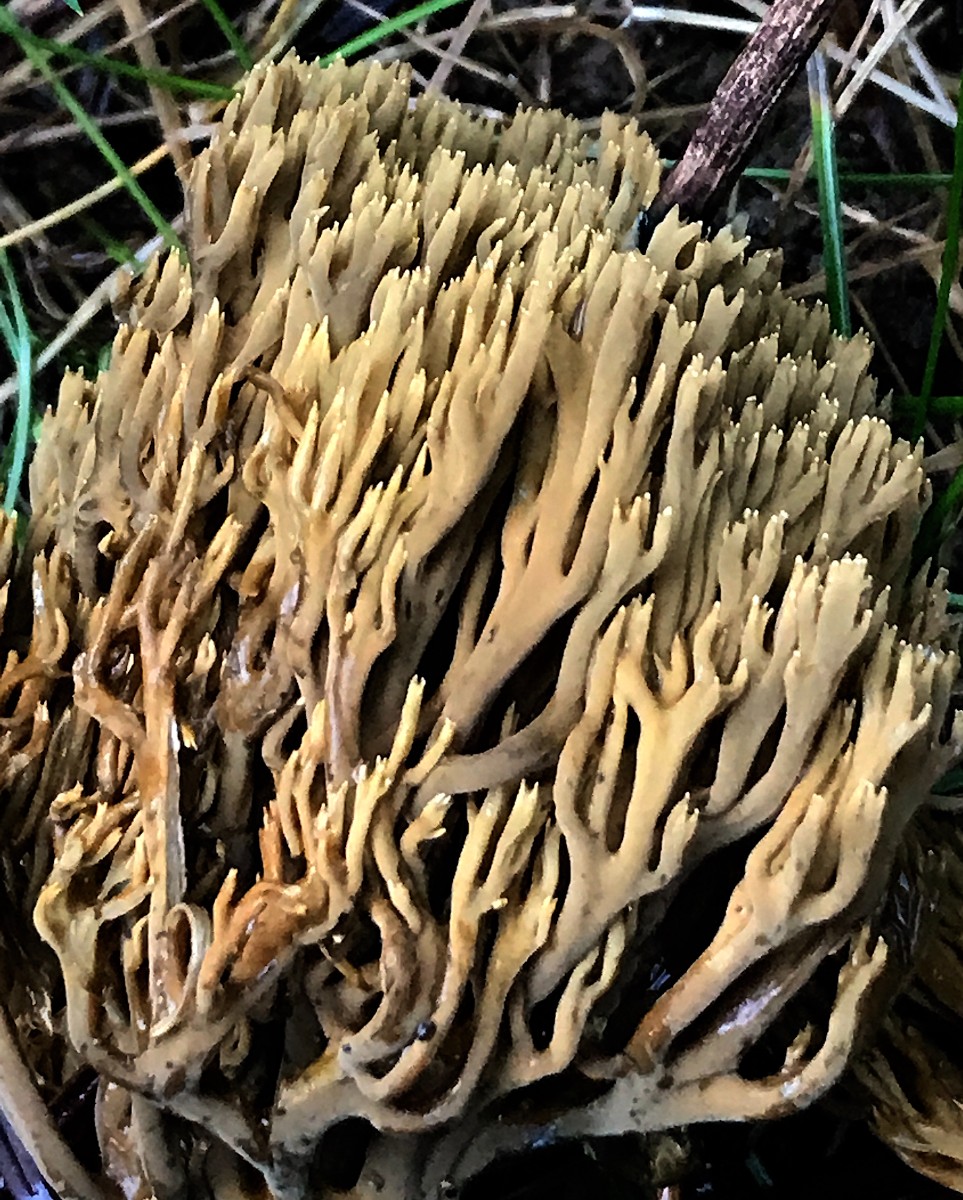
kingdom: Fungi
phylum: Basidiomycota
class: Agaricomycetes
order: Gomphales
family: Gomphaceae
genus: Phaeoclavulina
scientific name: Phaeoclavulina eumorpha
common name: gran-koralsvamp
